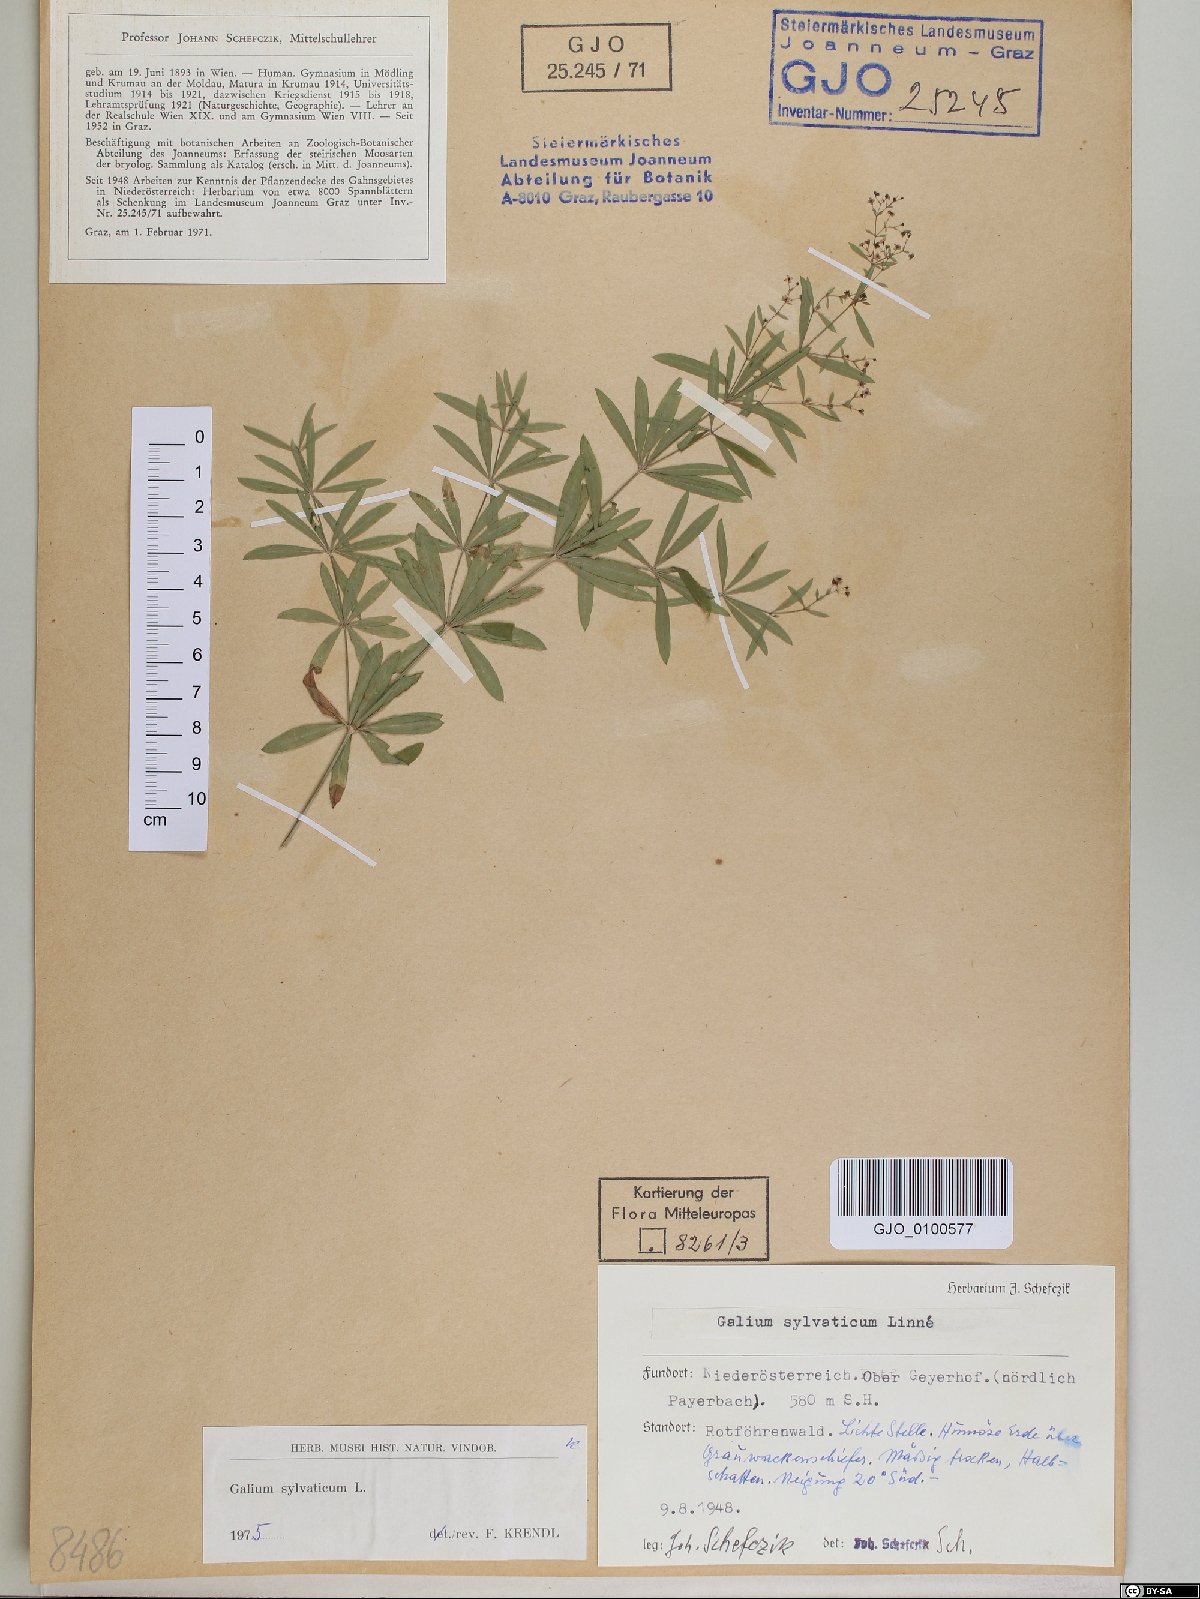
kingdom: Plantae
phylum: Tracheophyta
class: Magnoliopsida
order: Gentianales
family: Rubiaceae
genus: Galium
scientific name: Galium sylvaticum
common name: Wood bedstraw
